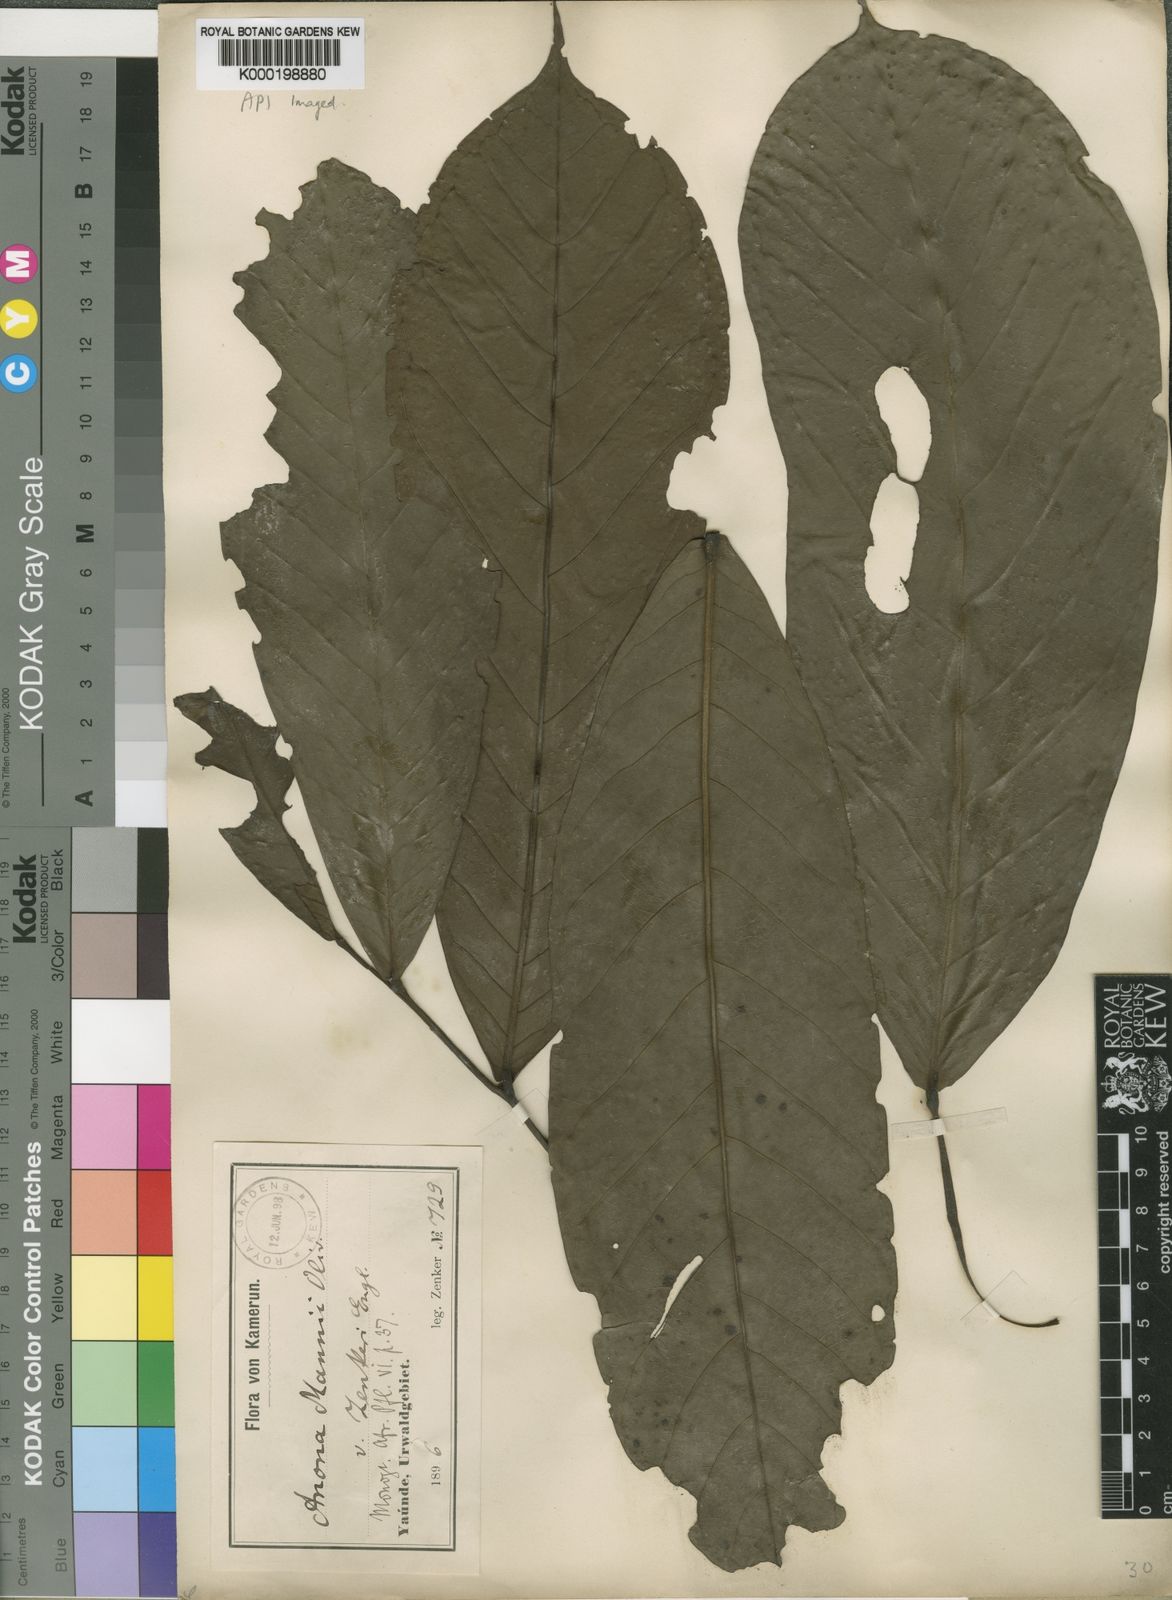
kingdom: Plantae
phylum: Tracheophyta
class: Magnoliopsida
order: Magnoliales
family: Annonaceae
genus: Anonidium
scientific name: Anonidium mannii
